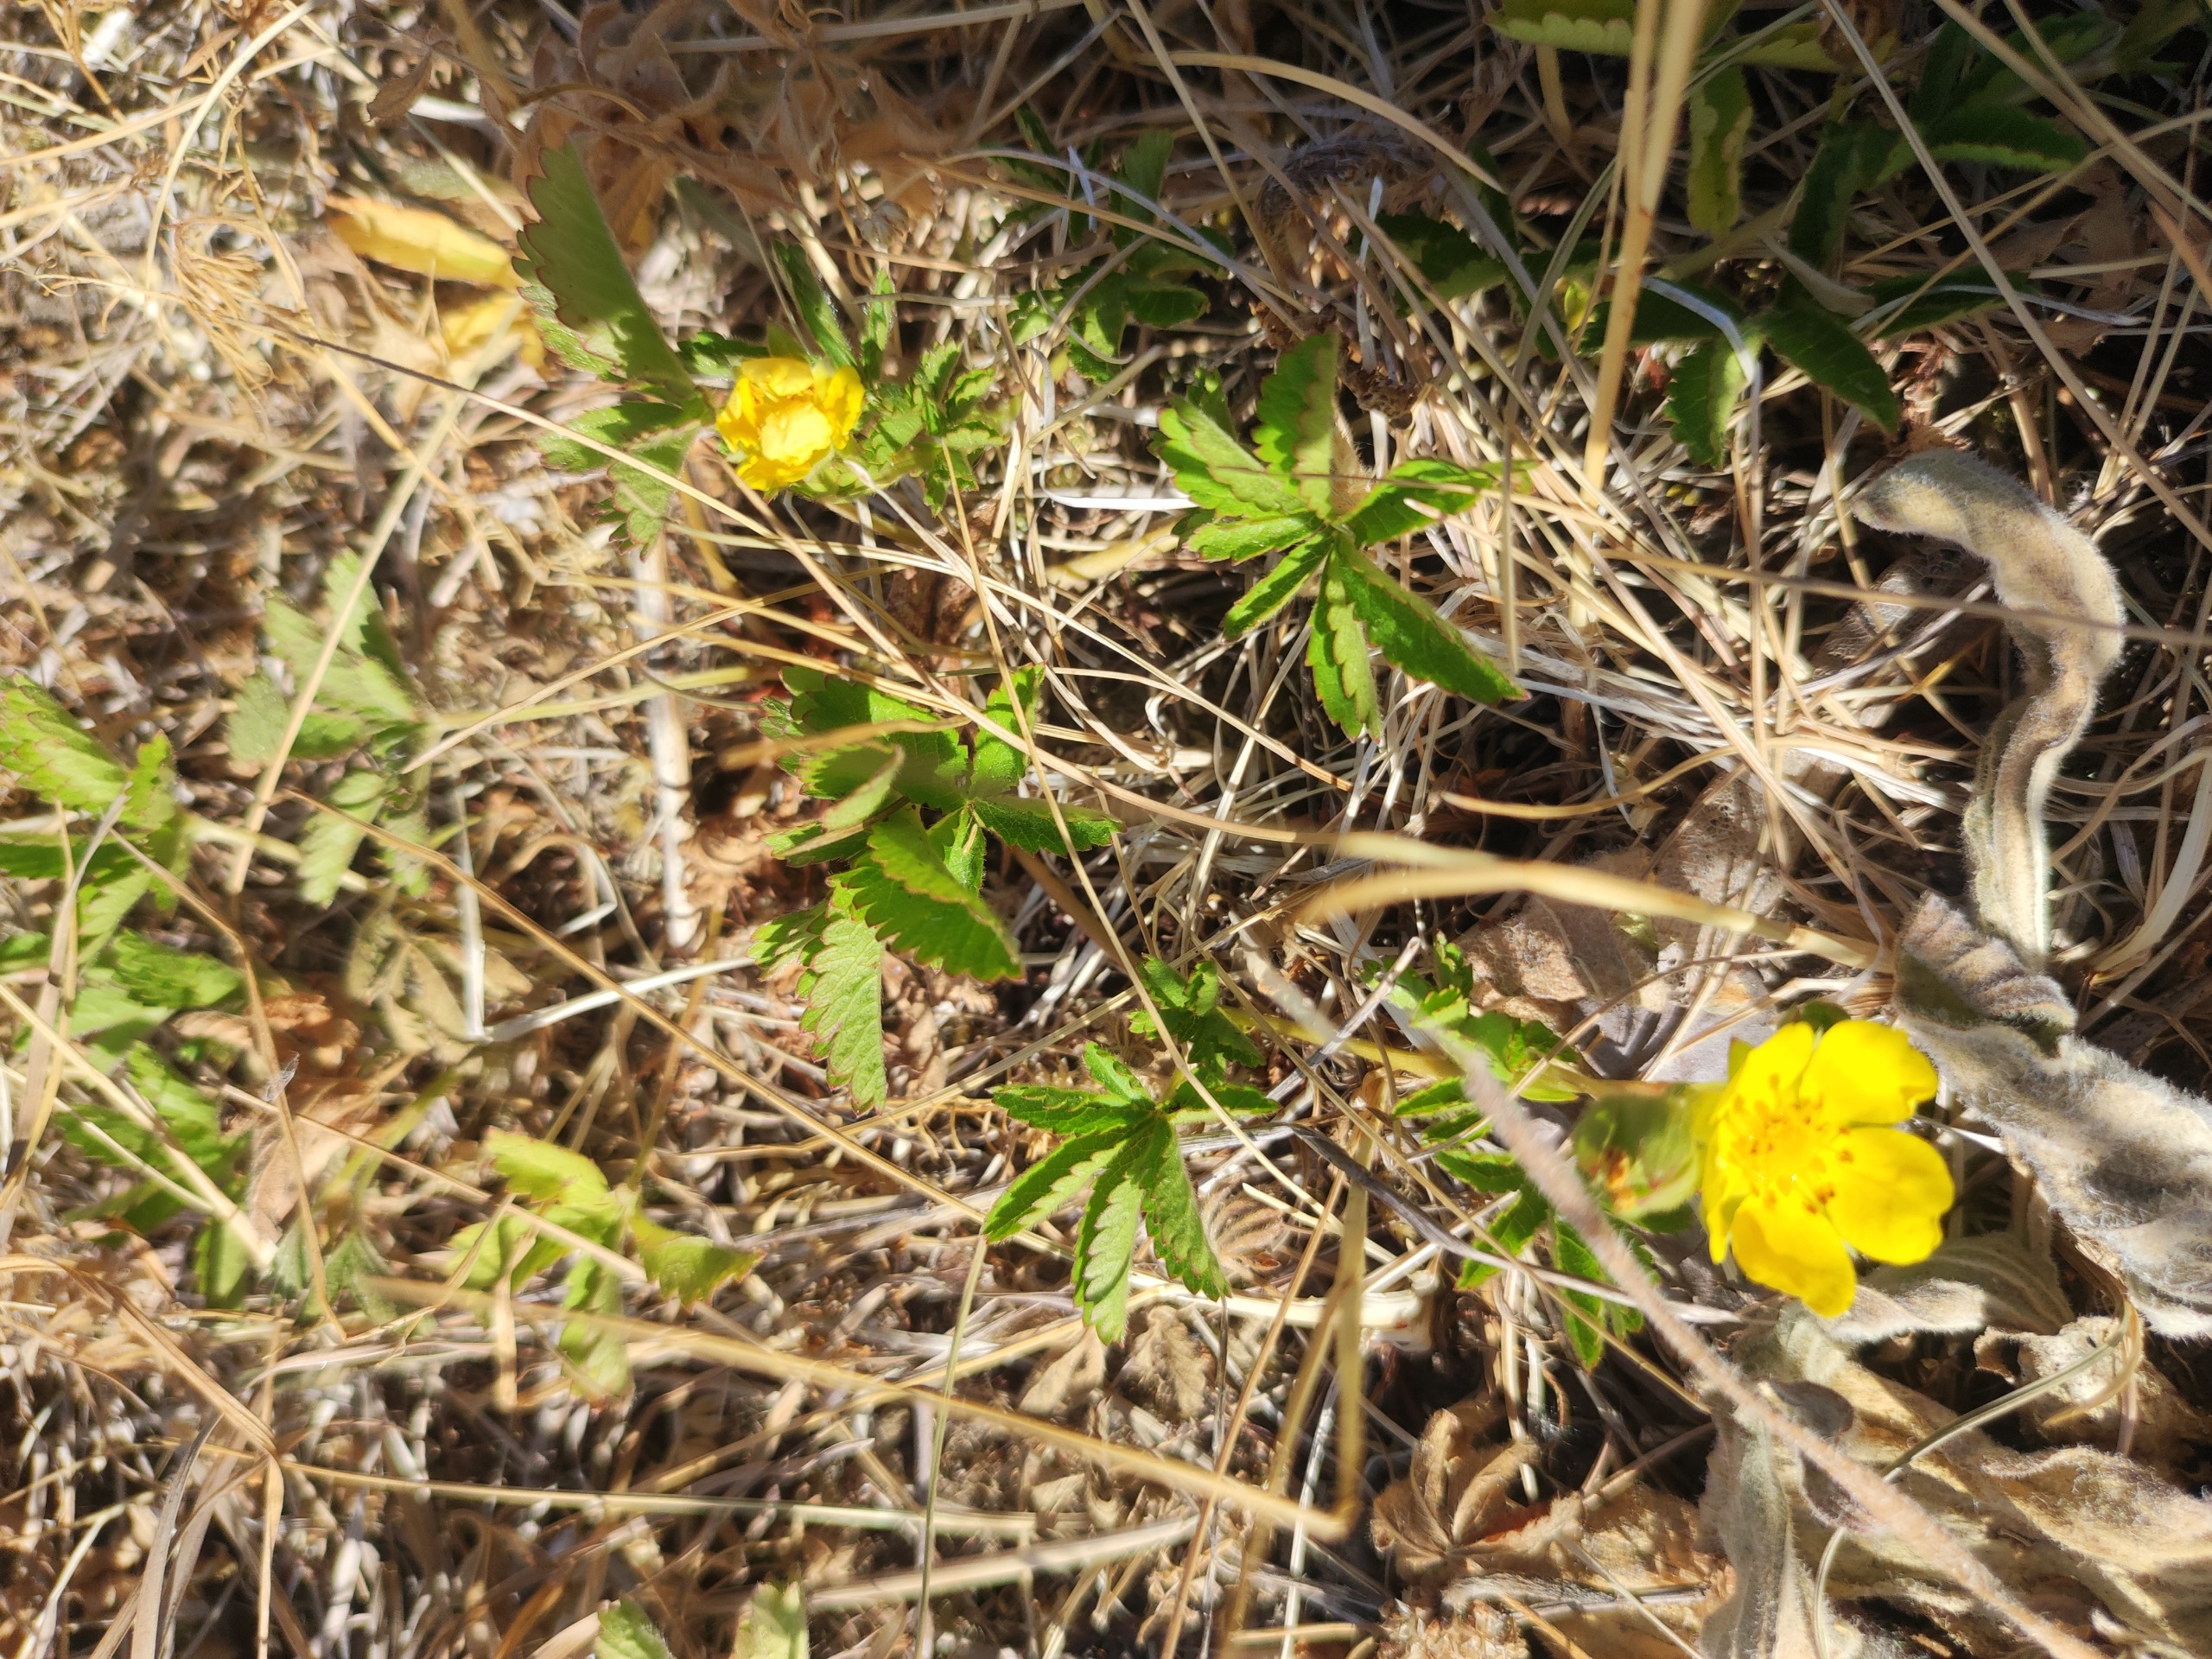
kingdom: Plantae
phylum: Tracheophyta
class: Magnoliopsida
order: Rosales
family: Rosaceae
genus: Potentilla
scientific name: Potentilla reptans
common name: Krybende potentil
